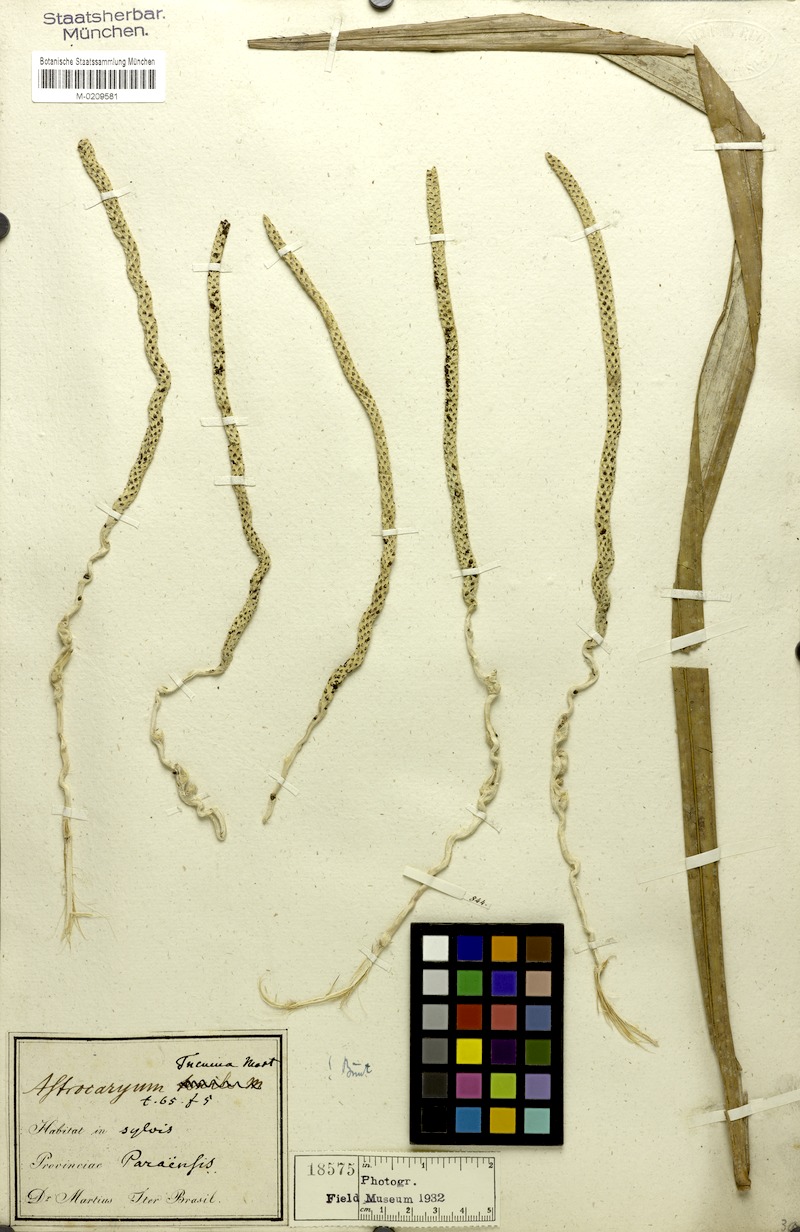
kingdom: Plantae
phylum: Tracheophyta
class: Liliopsida
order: Arecales
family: Arecaceae
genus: Astrocaryum
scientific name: Astrocaryum tucuma
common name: Tucum palm
